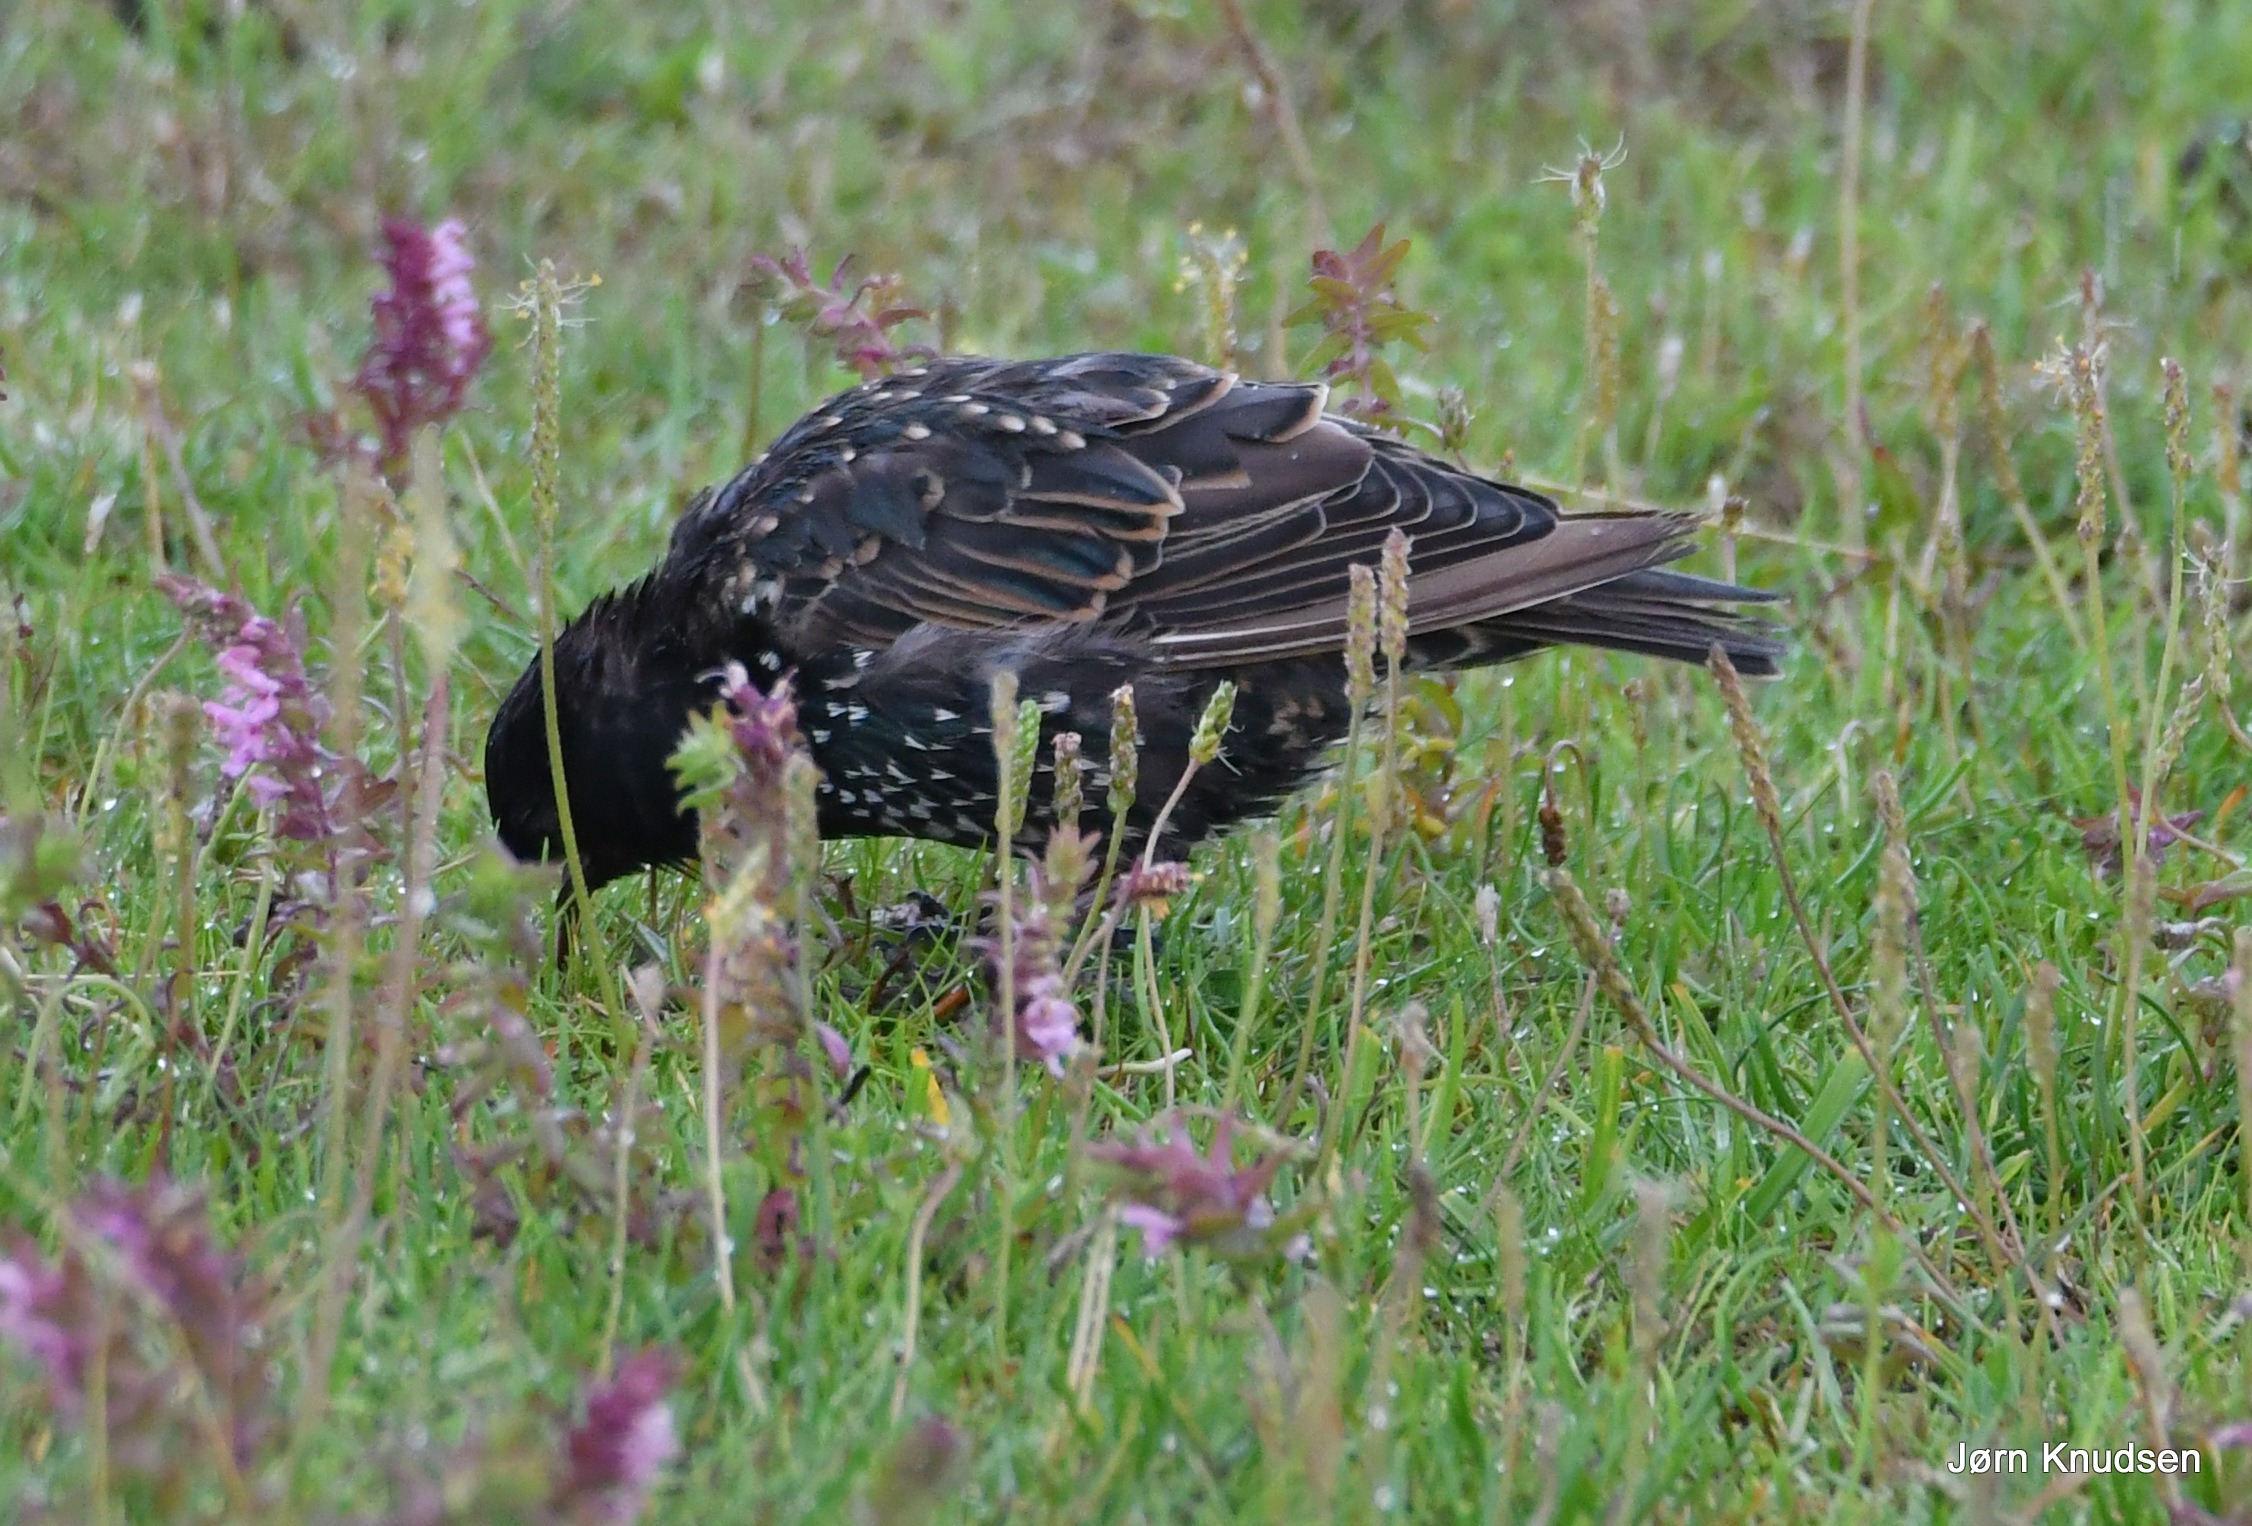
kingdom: Animalia
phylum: Chordata
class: Aves
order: Passeriformes
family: Sturnidae
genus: Sturnus
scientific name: Sturnus vulgaris
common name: Stær
